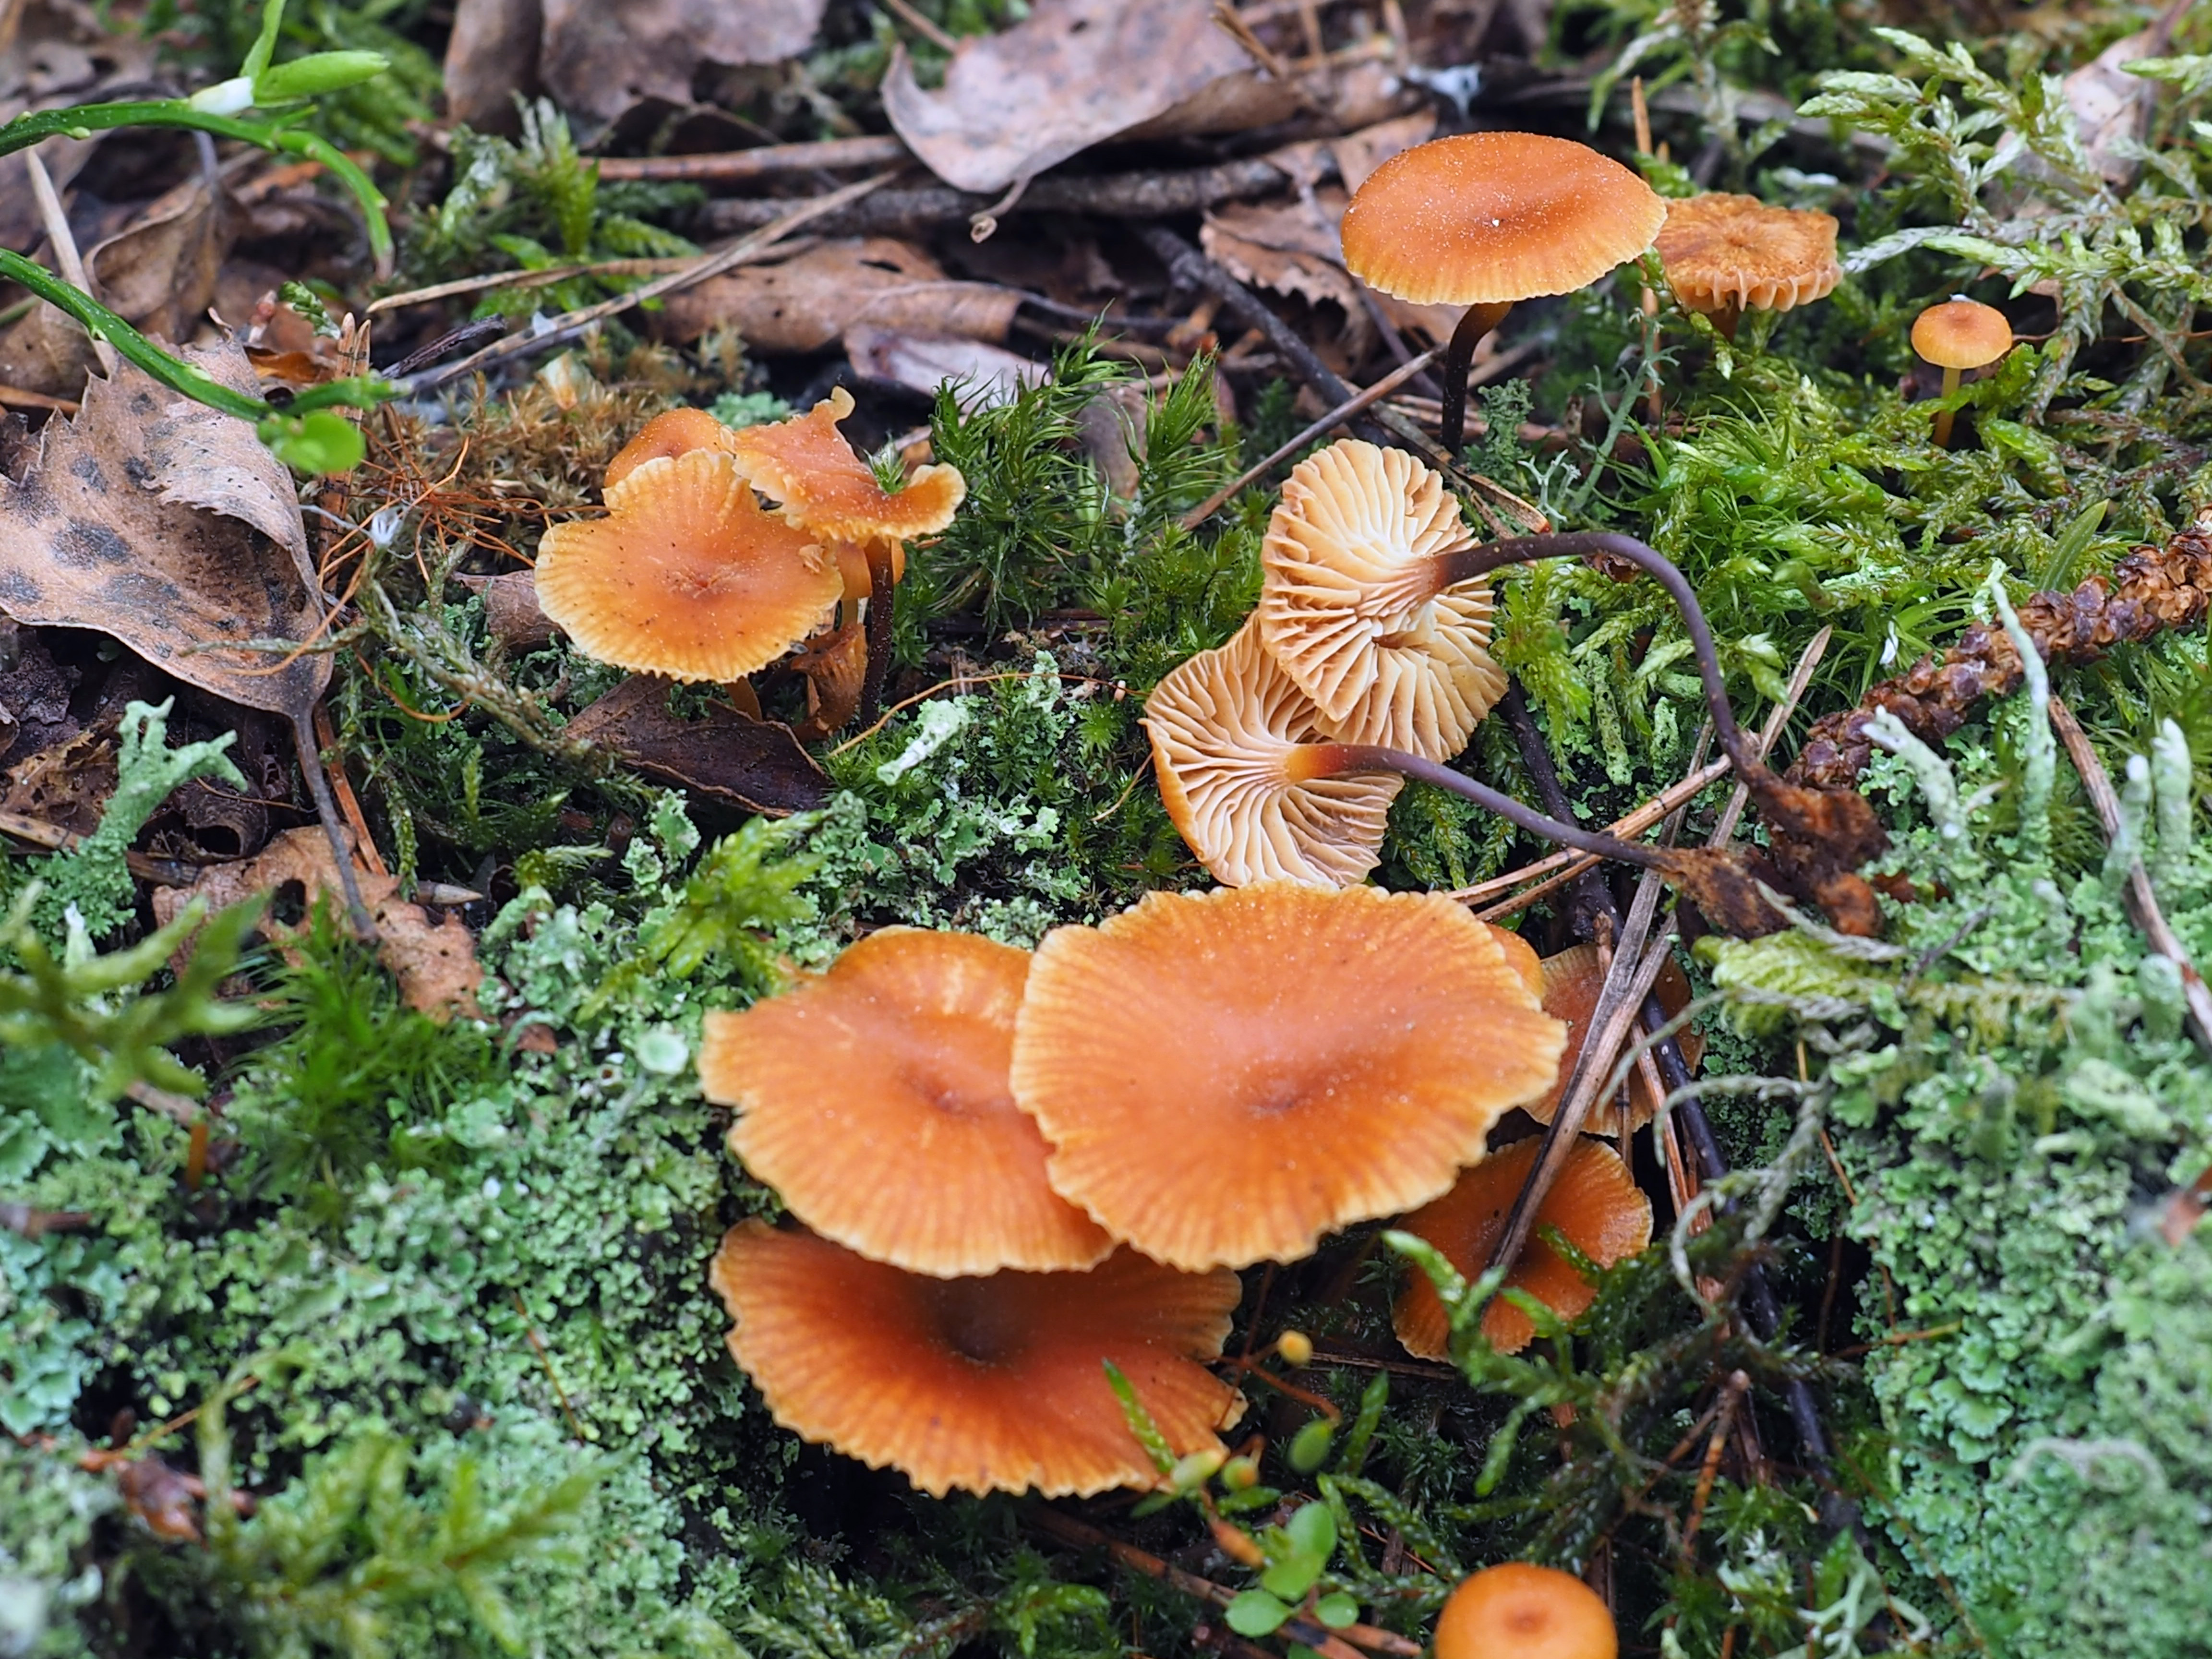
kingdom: Fungi
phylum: Basidiomycota
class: Agaricomycetes
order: Agaricales
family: Mycenaceae
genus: Xeromphalina
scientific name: Xeromphalina campanella
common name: Pinewood gingertail
